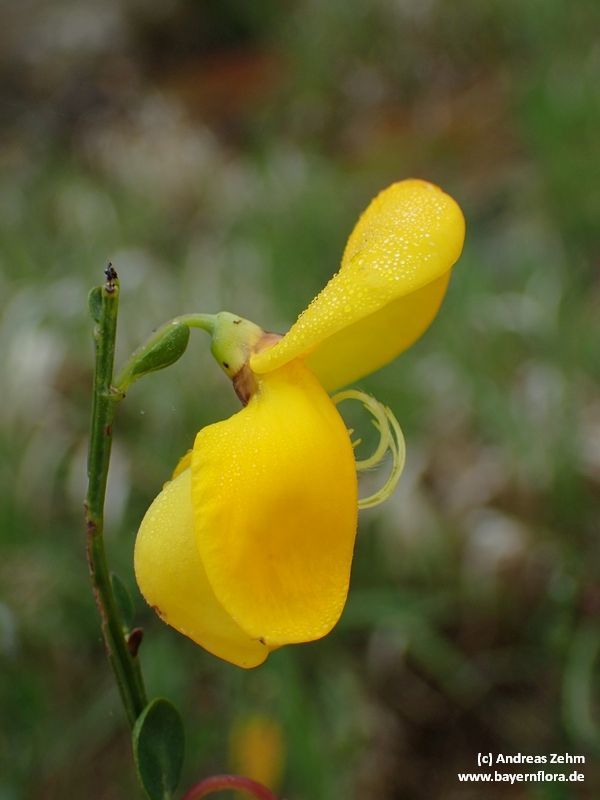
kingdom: Plantae
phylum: Tracheophyta
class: Magnoliopsida
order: Fabales
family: Fabaceae
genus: Cytisus
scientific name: Cytisus scoparius
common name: Scotch broom
